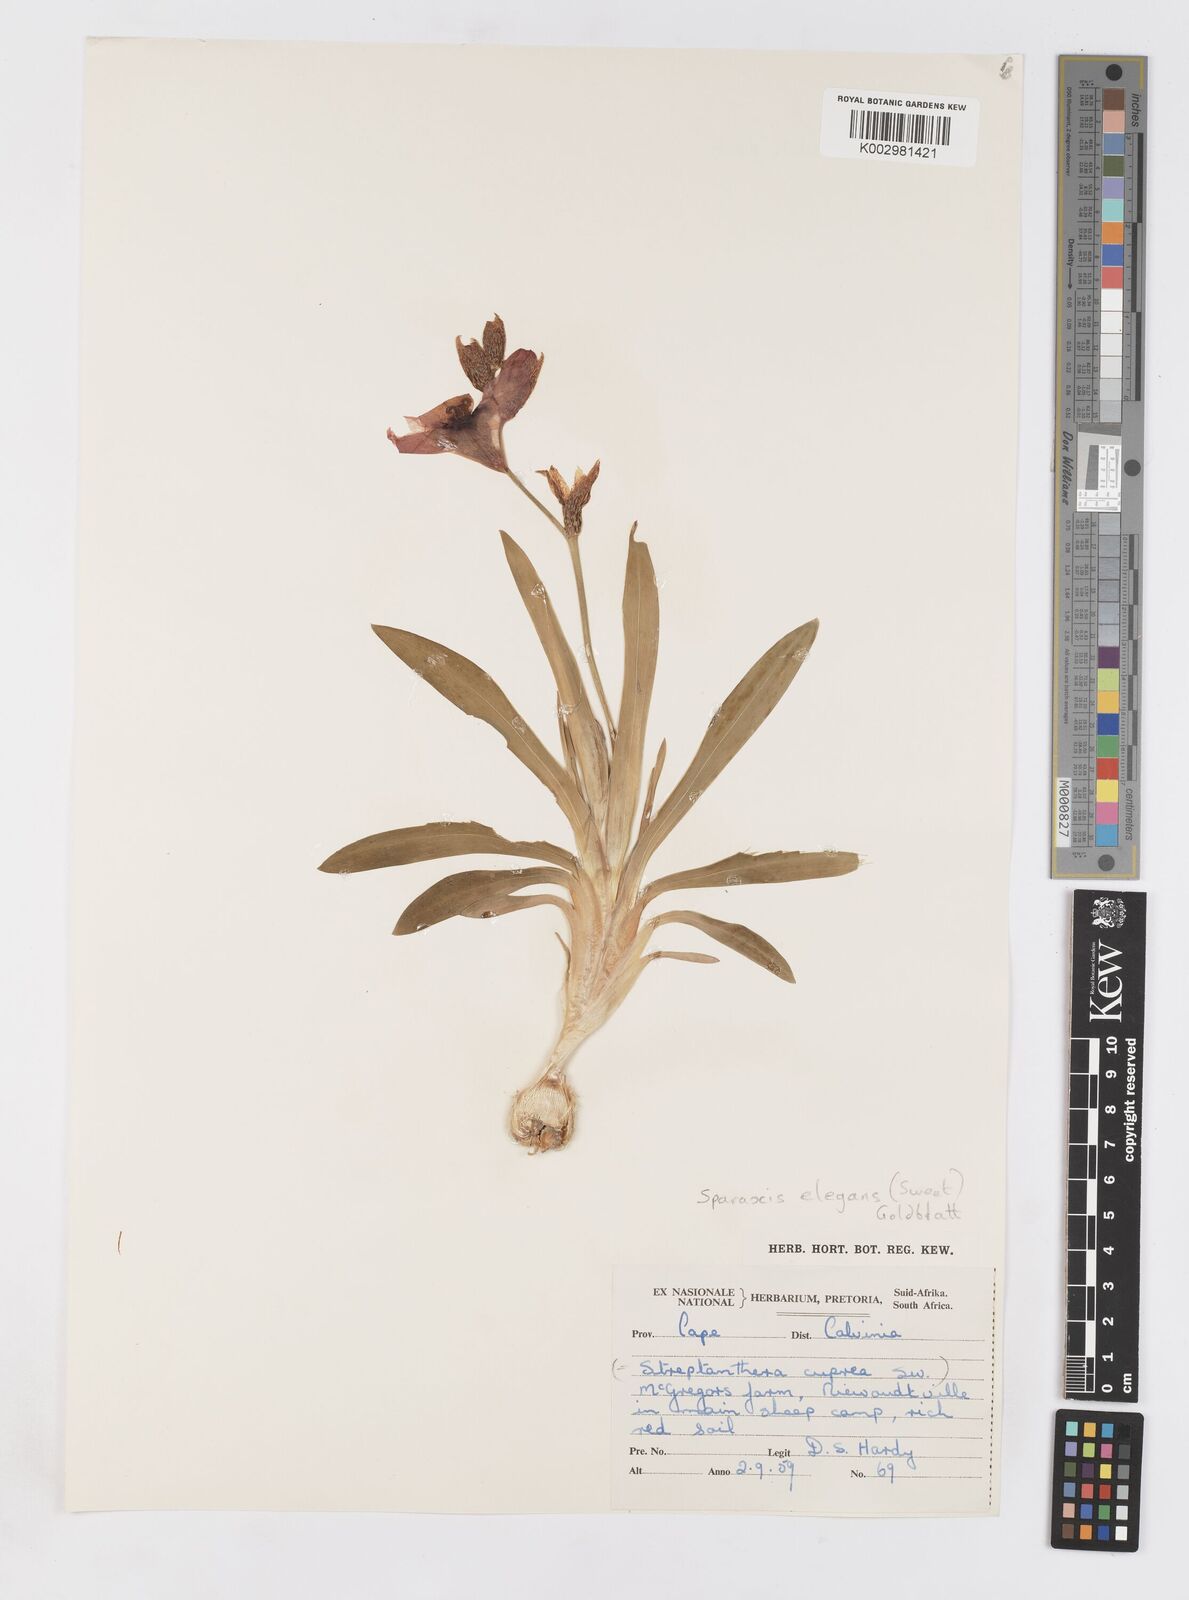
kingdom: Plantae
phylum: Tracheophyta
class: Liliopsida
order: Asparagales
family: Iridaceae
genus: Sparaxis
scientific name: Sparaxis elegans
